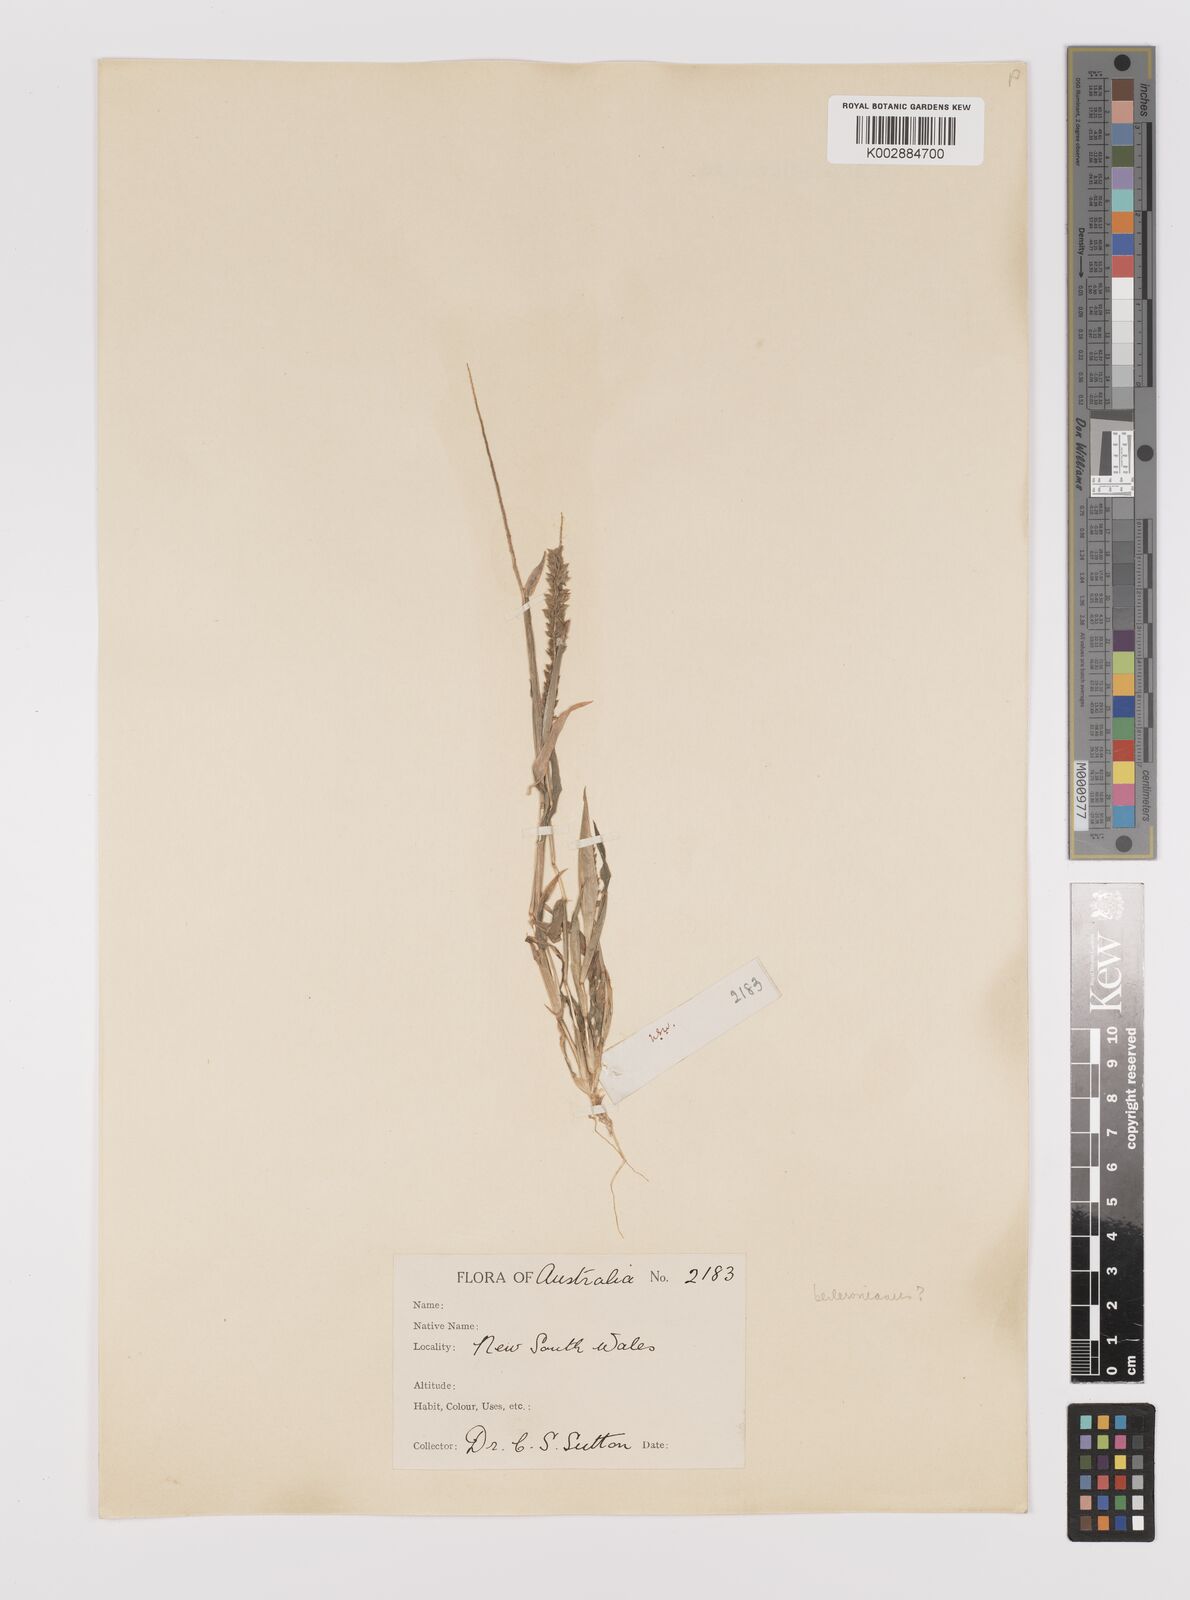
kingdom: Plantae
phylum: Tracheophyta
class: Liliopsida
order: Poales
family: Poaceae
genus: Tragus
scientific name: Tragus australianus
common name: Australian bur-grass
